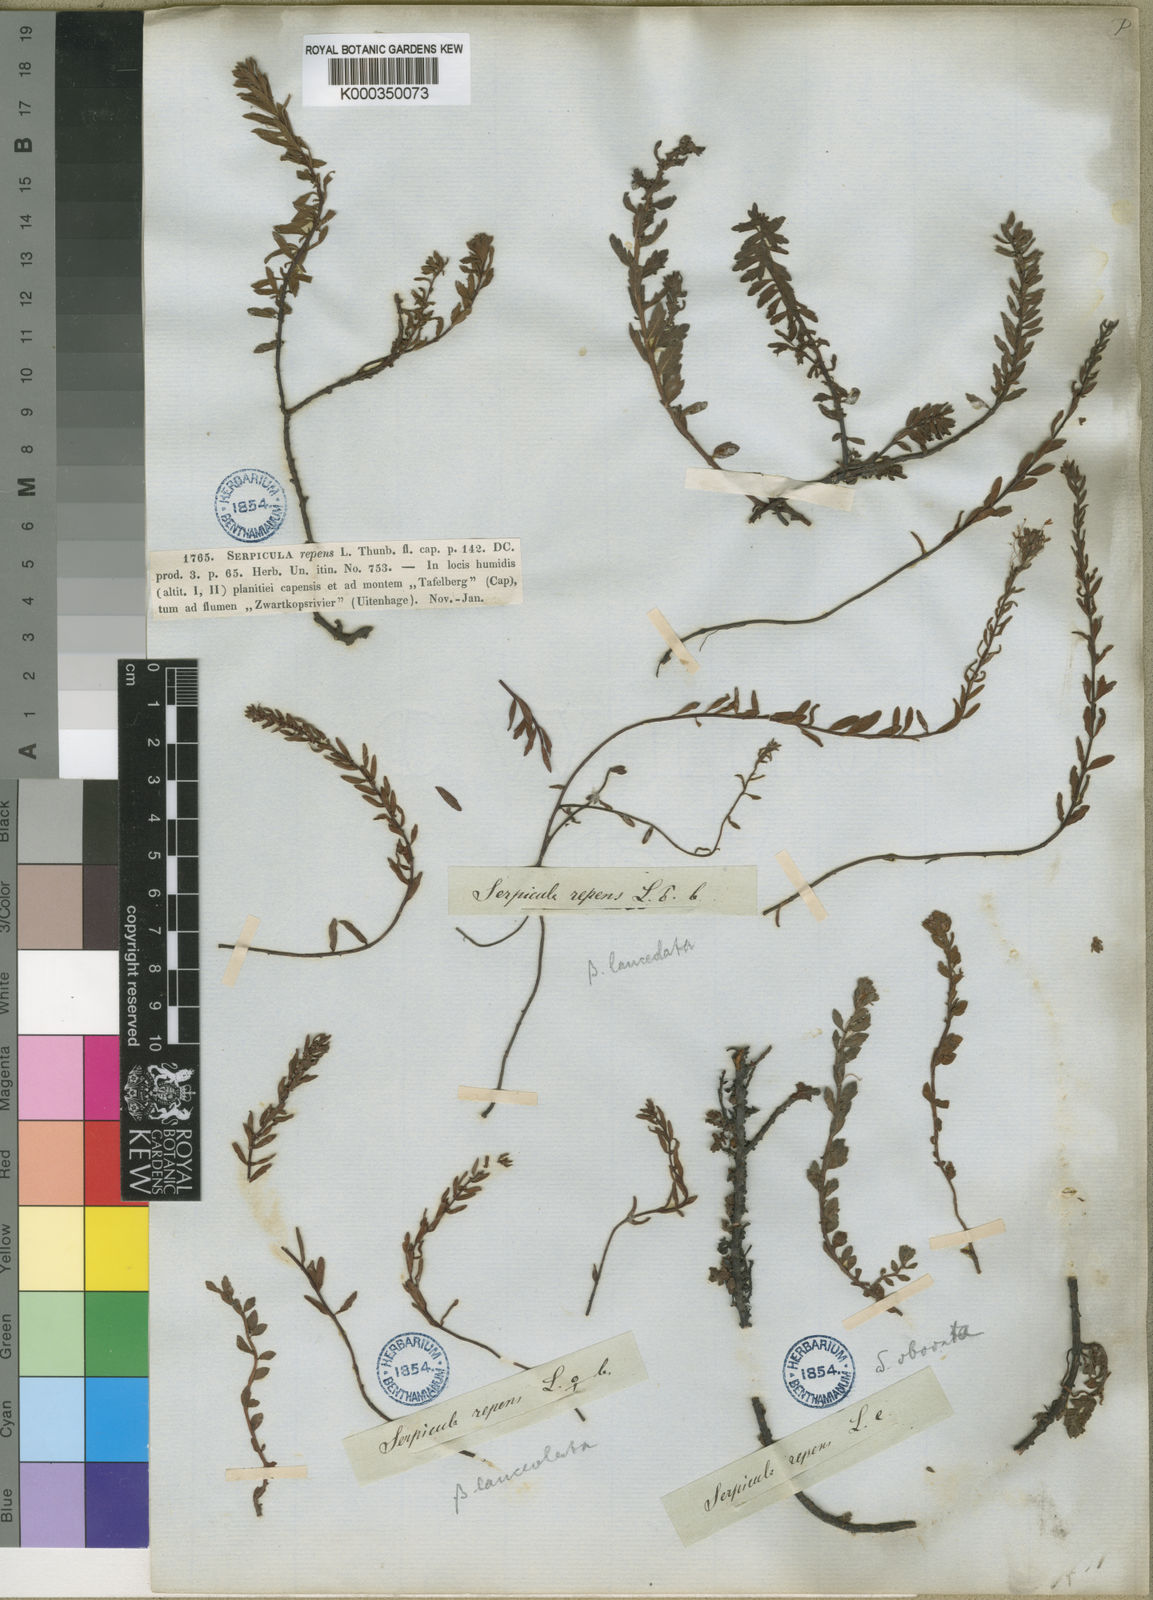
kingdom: Plantae
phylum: Tracheophyta
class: Magnoliopsida
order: Saxifragales
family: Haloragaceae
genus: Laurembergia
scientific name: Laurembergia repens
